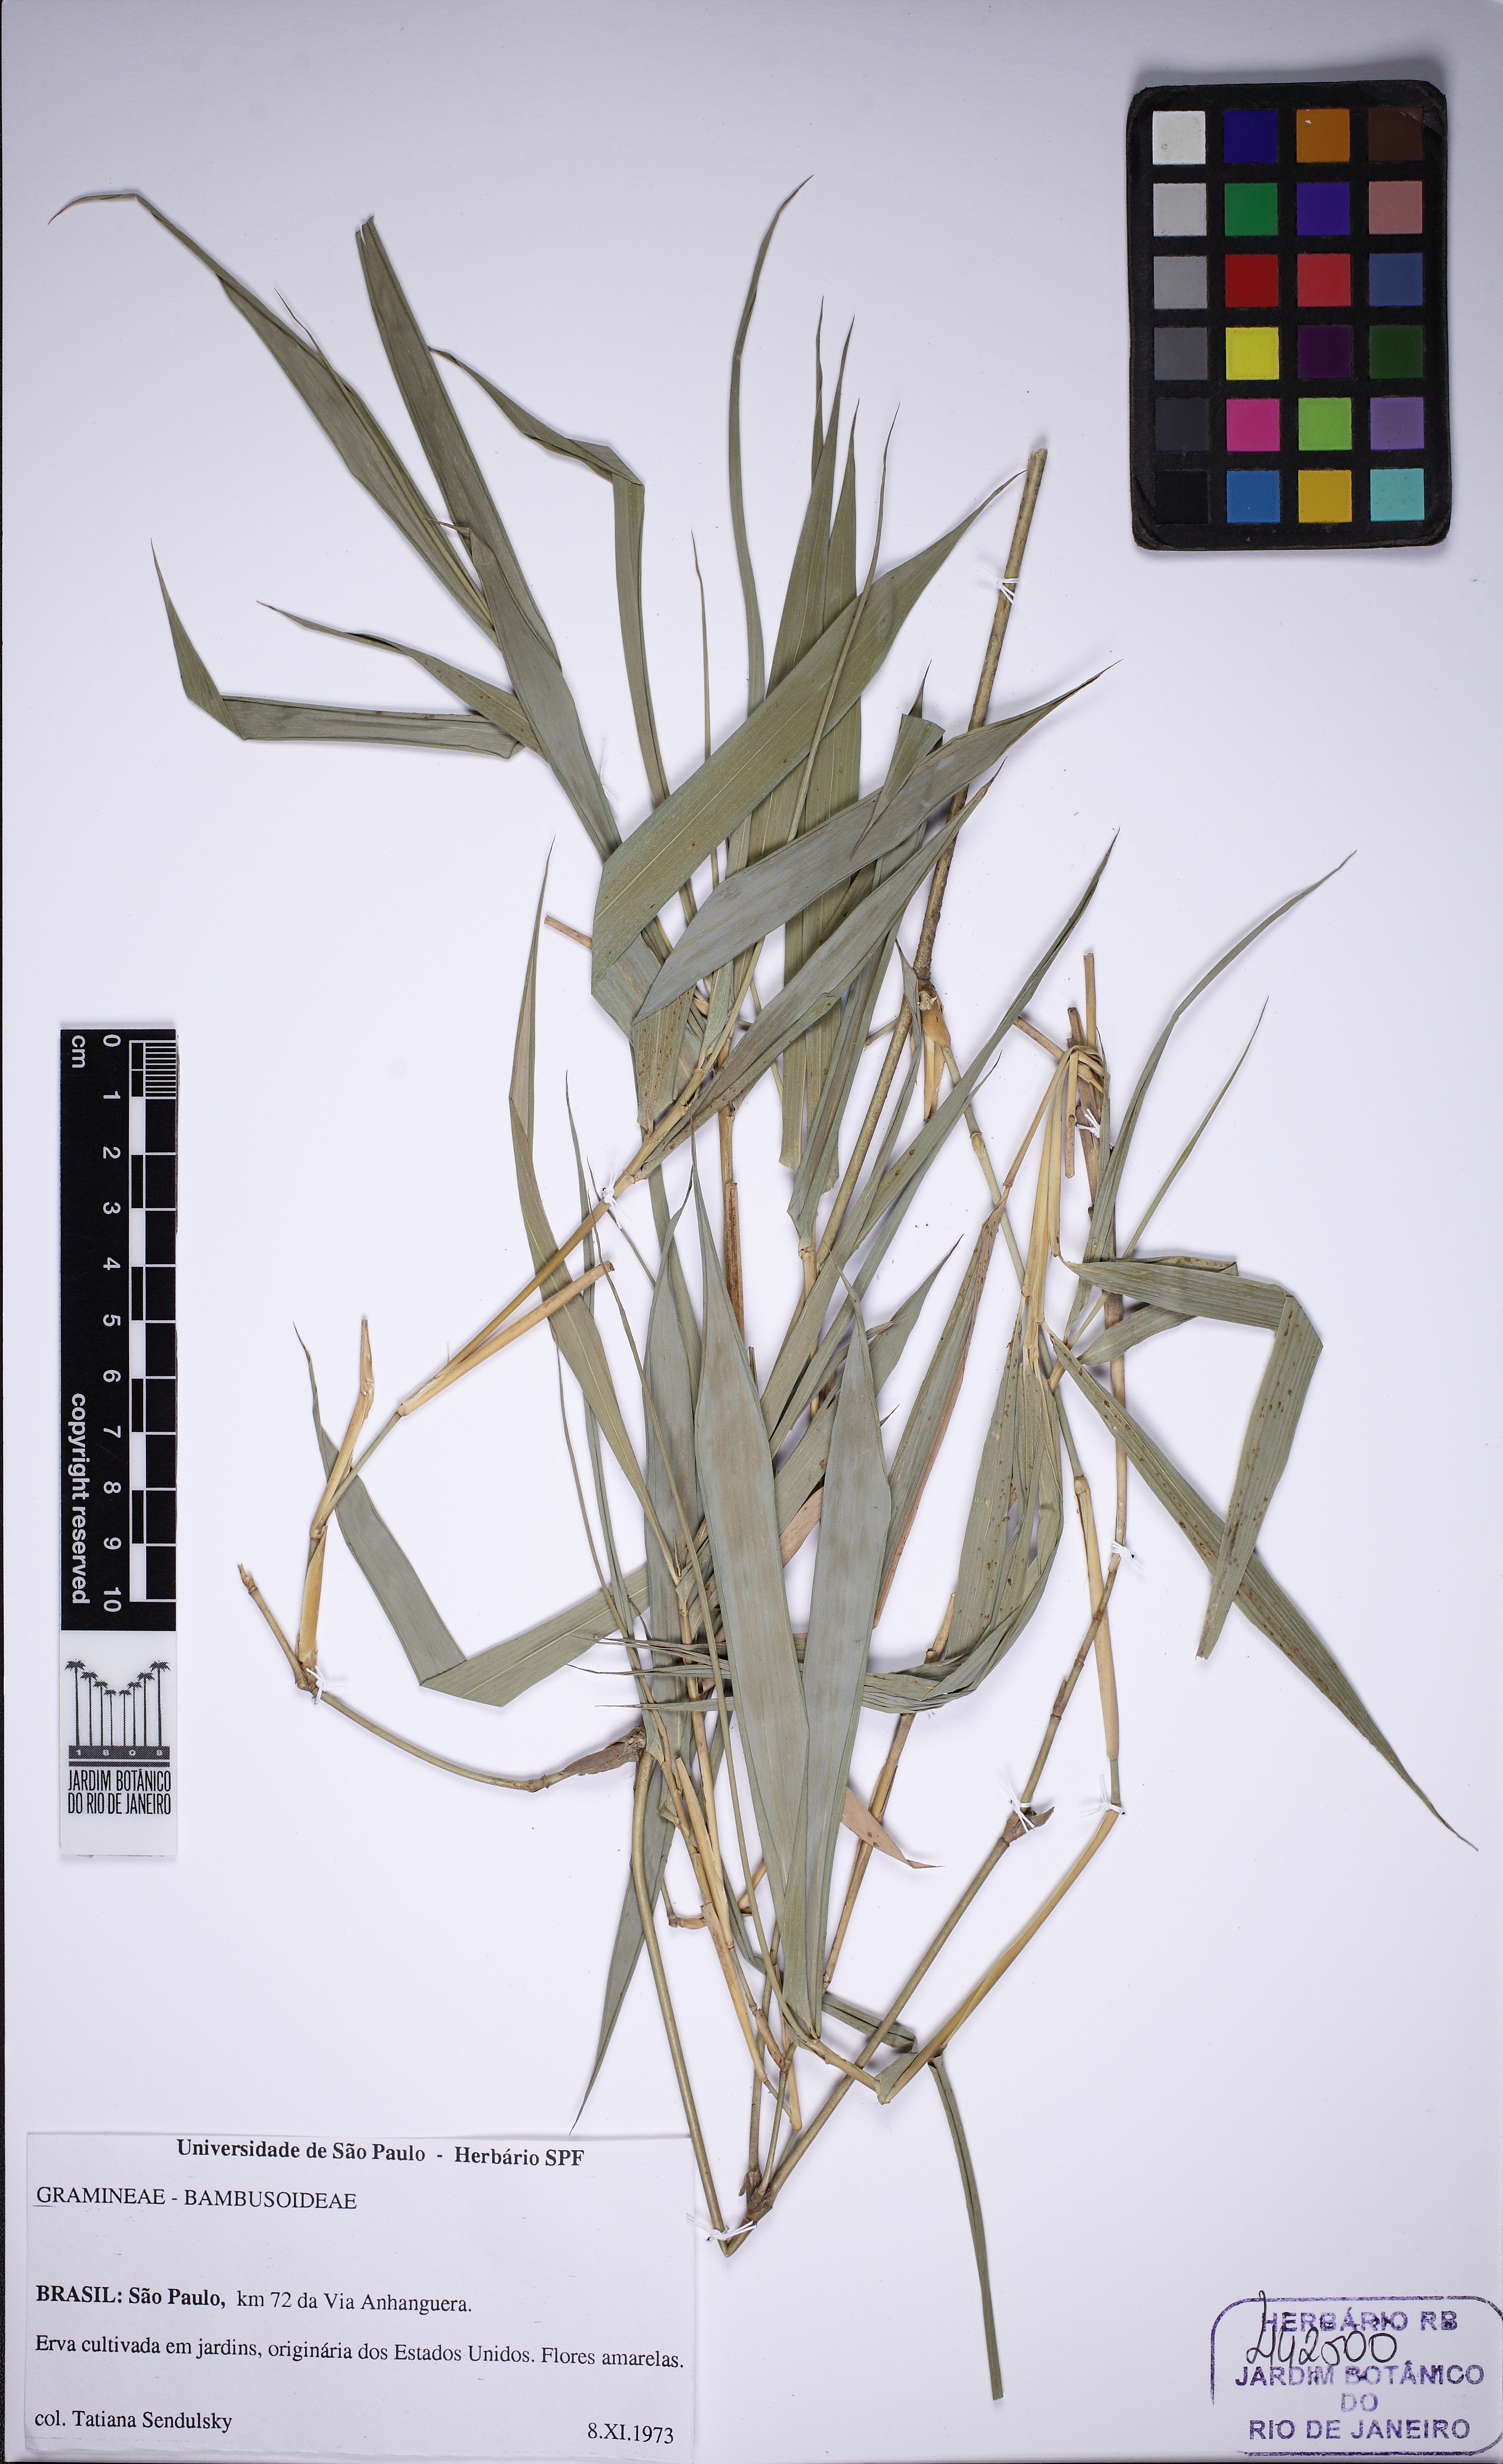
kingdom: Plantae
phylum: Tracheophyta
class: Liliopsida
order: Poales
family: Poaceae
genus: Bambusa
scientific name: Bambusa
